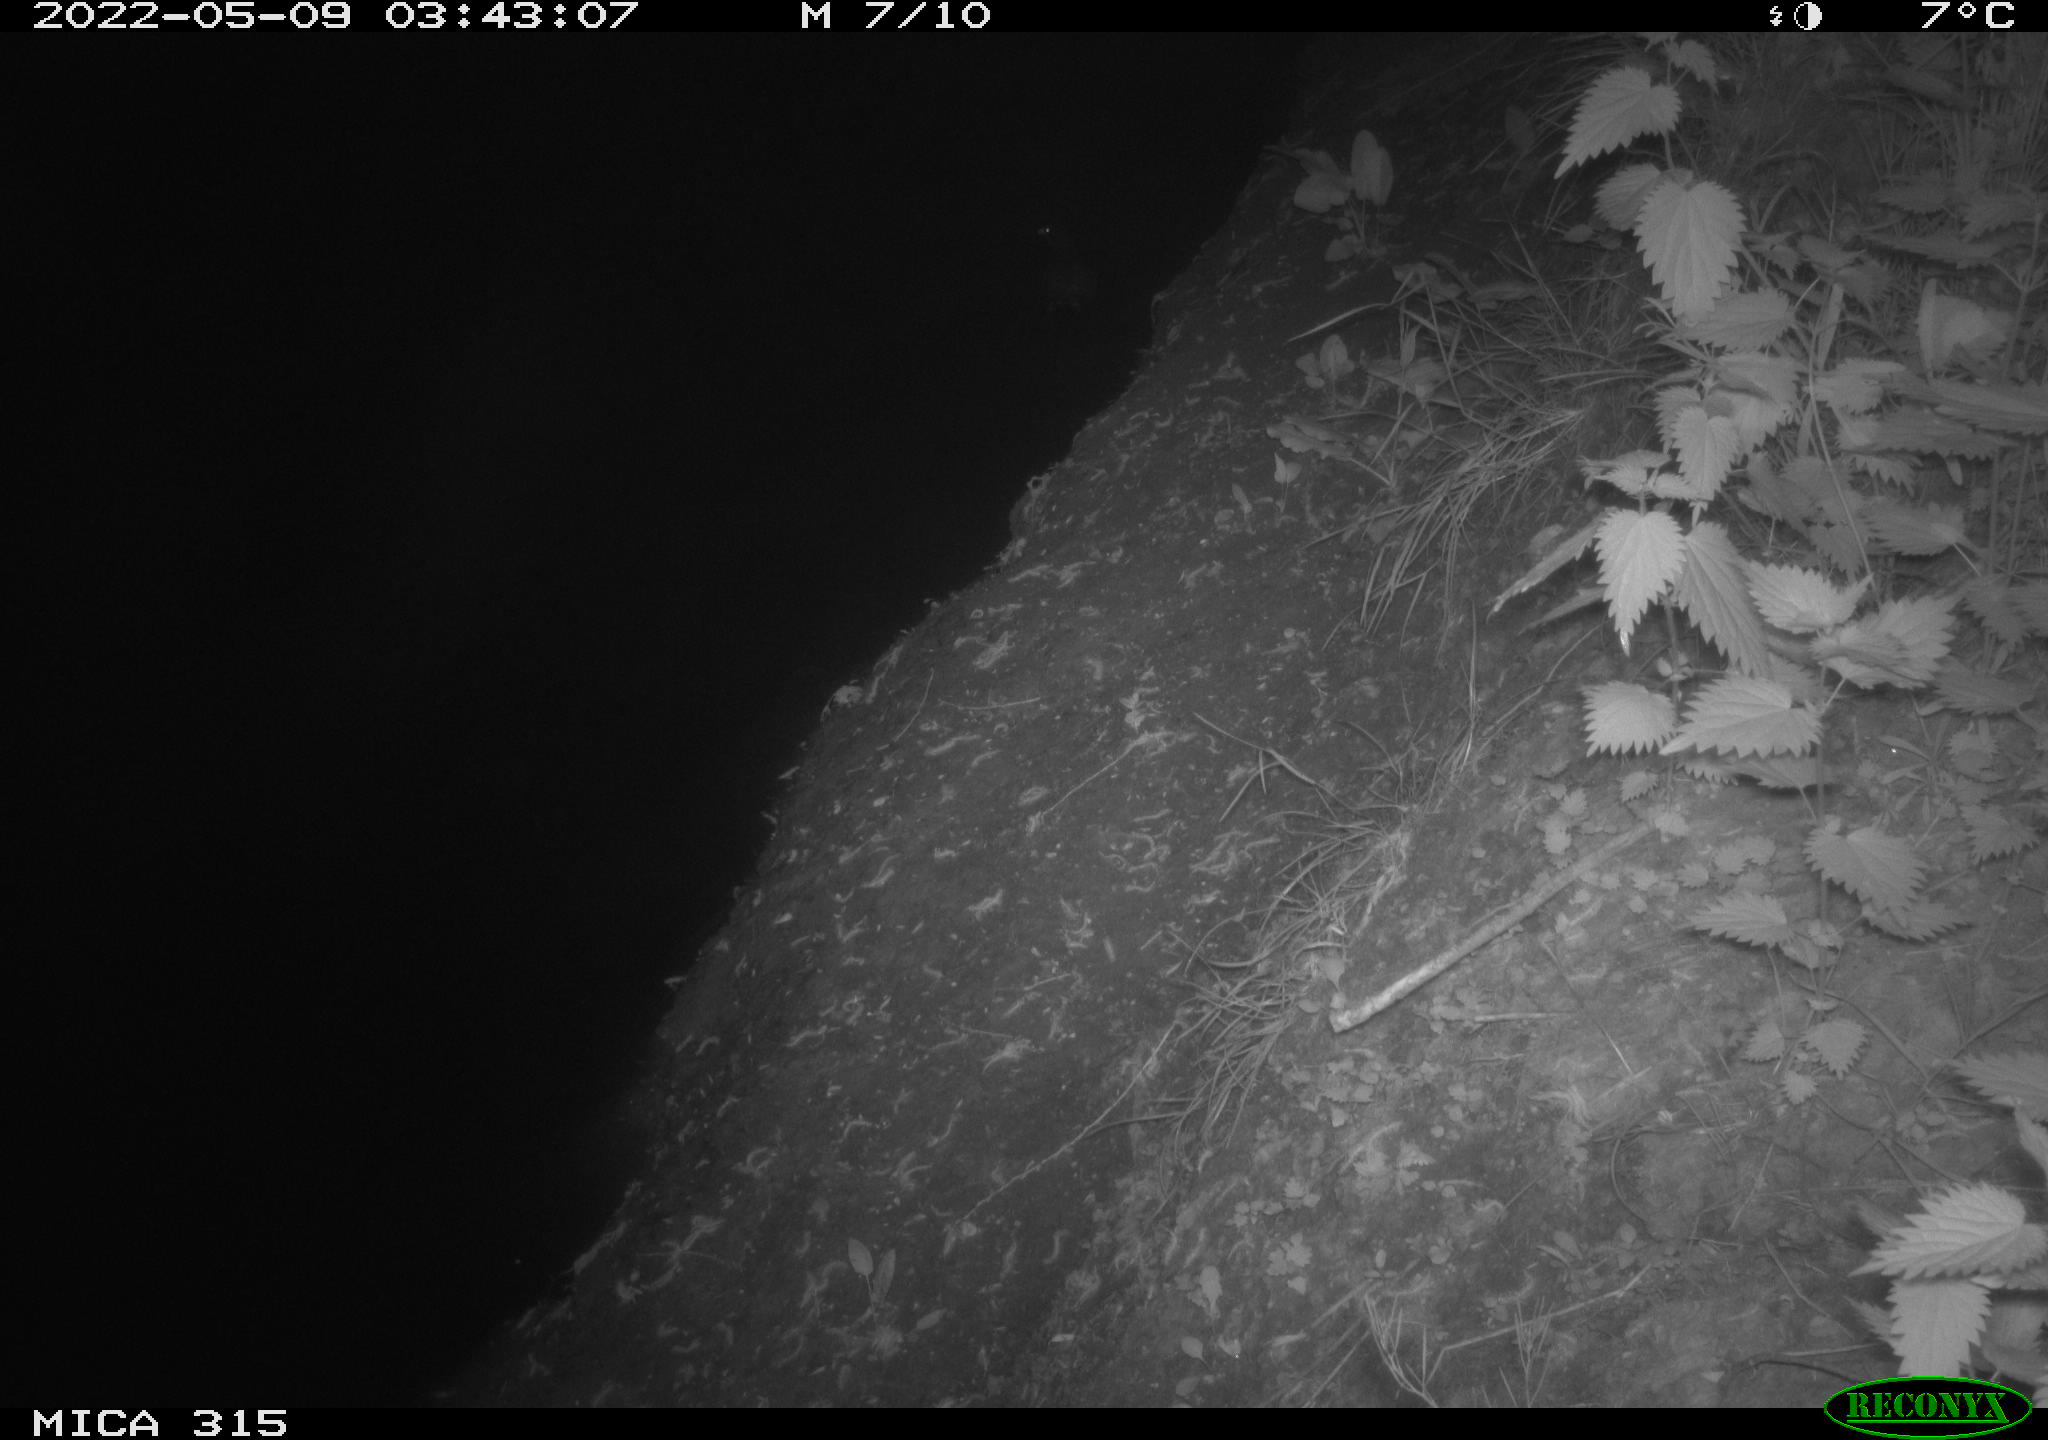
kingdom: Animalia
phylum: Chordata
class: Aves
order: Gruiformes
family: Rallidae
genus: Gallinula
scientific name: Gallinula chloropus
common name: Common moorhen
